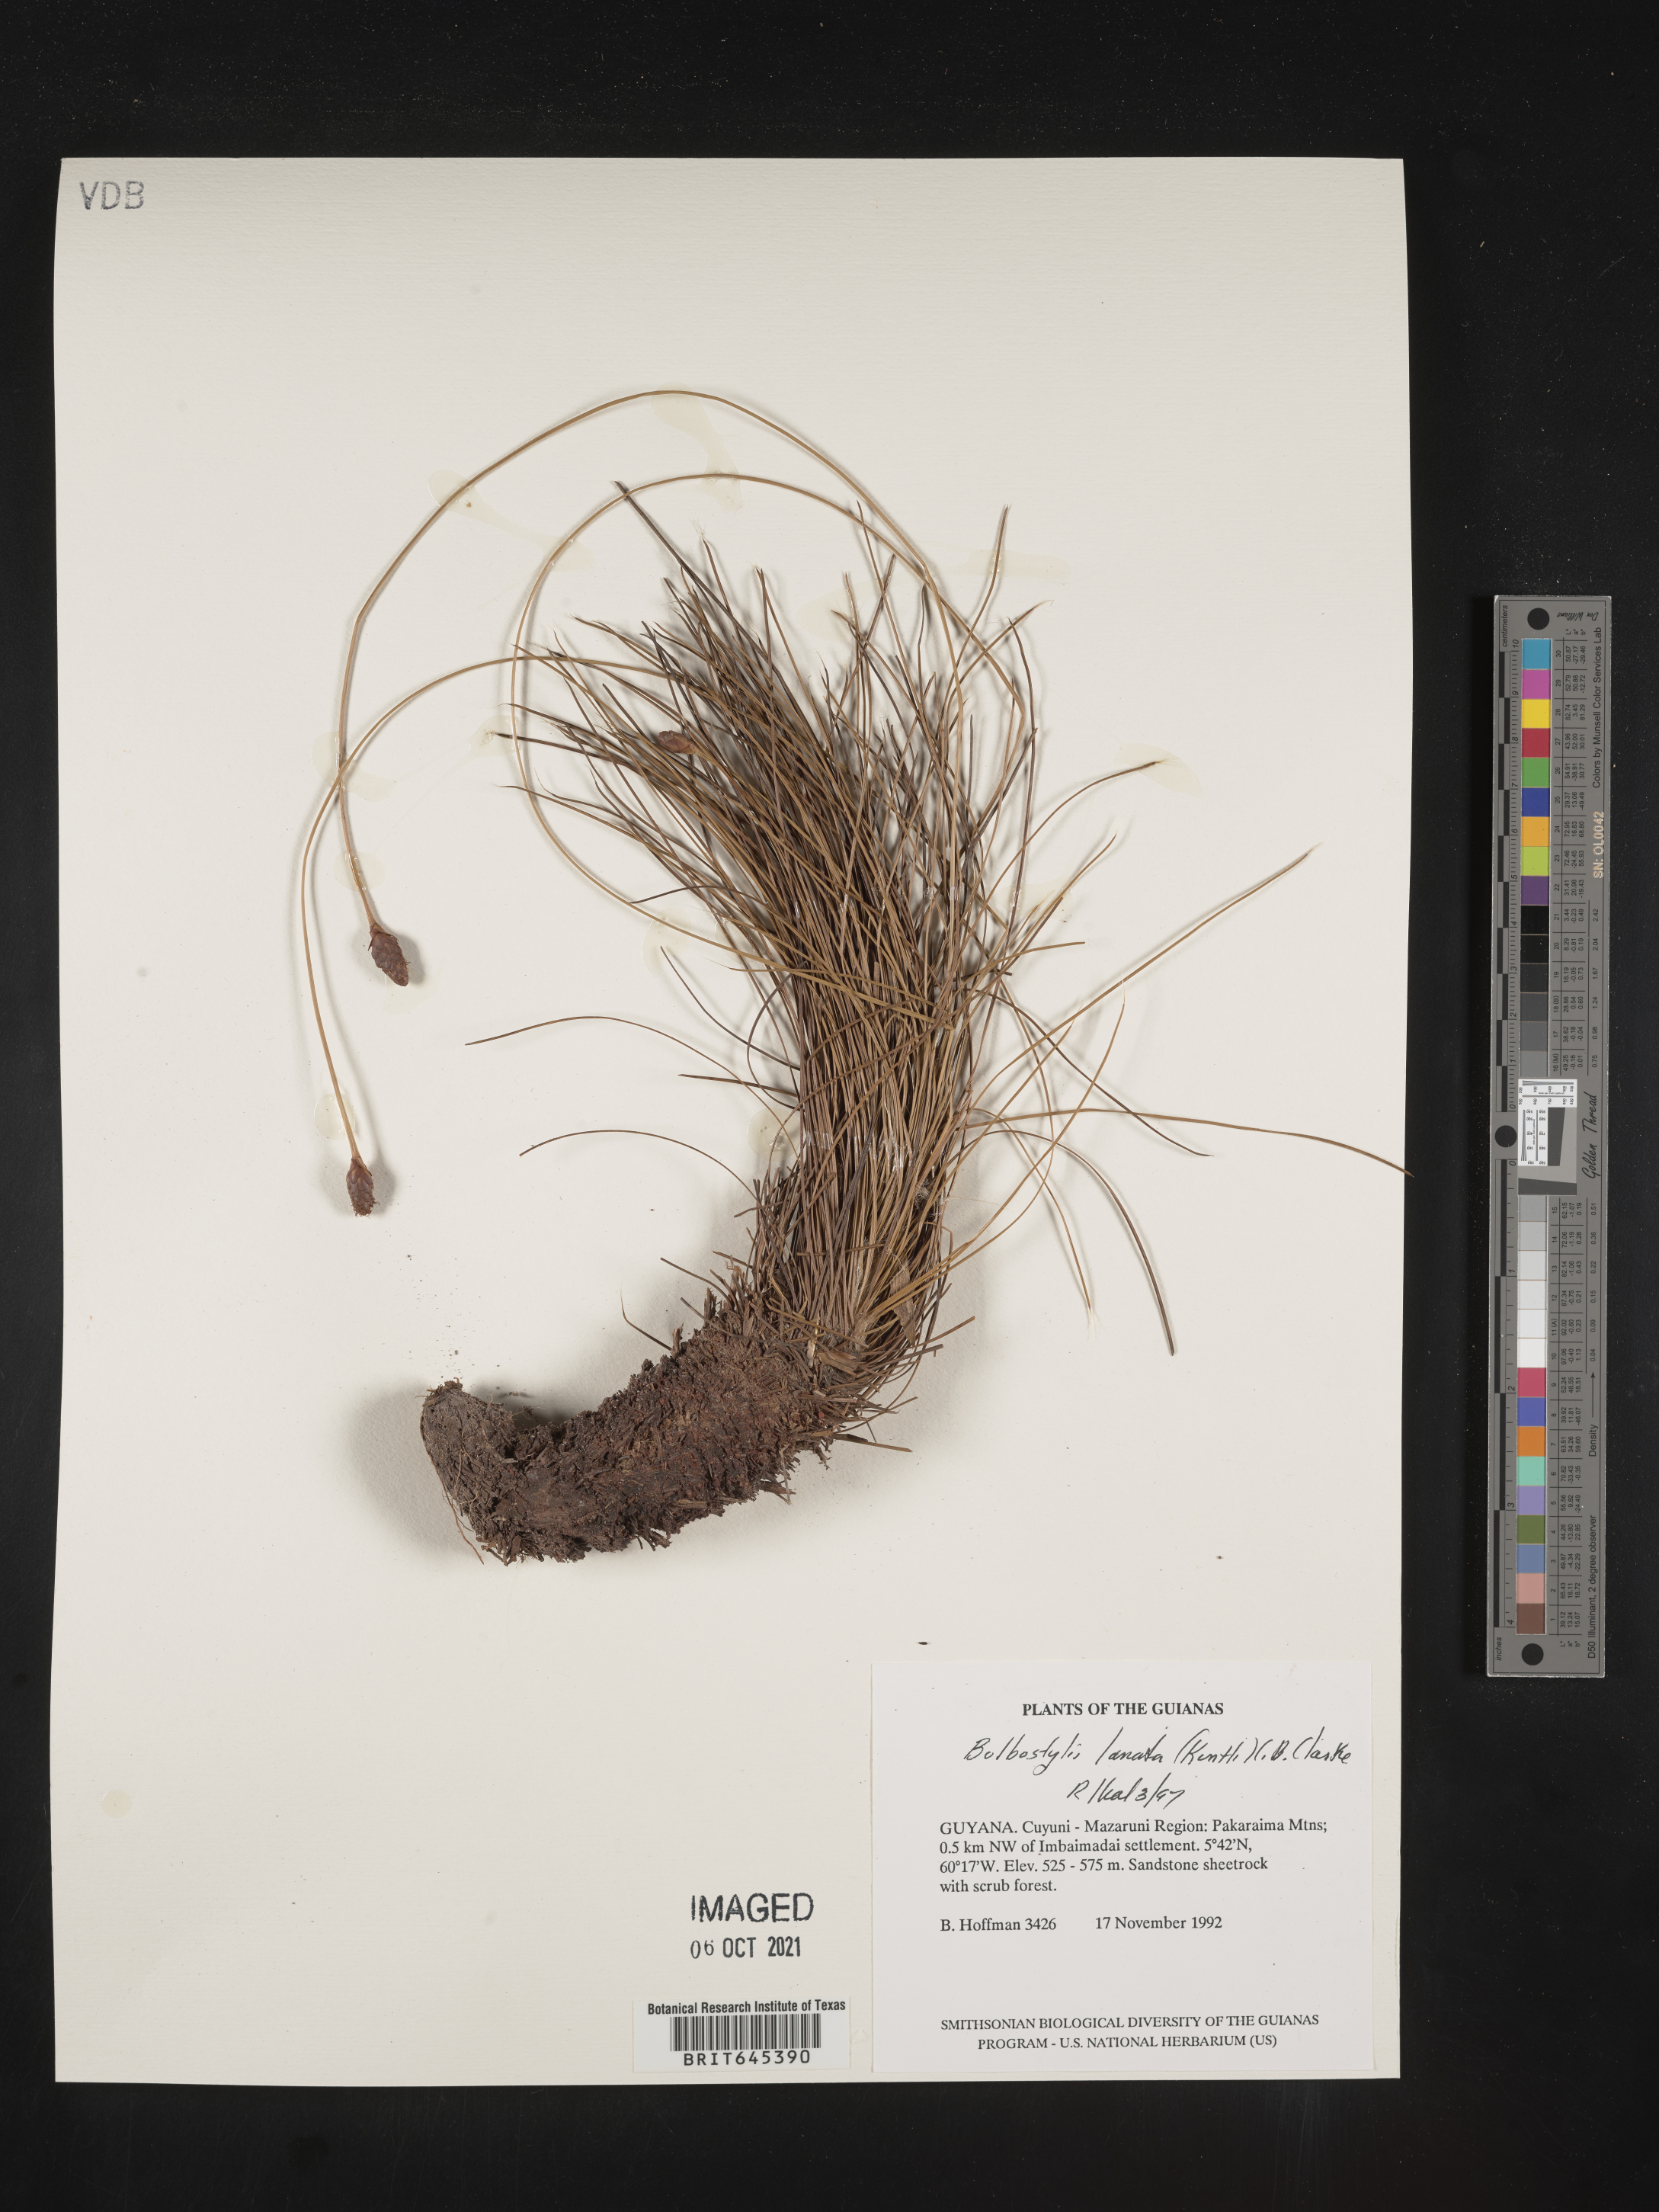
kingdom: Plantae
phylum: Tracheophyta
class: Liliopsida
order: Poales
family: Cyperaceae
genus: Bulbostylis
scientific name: Bulbostylis lanata
